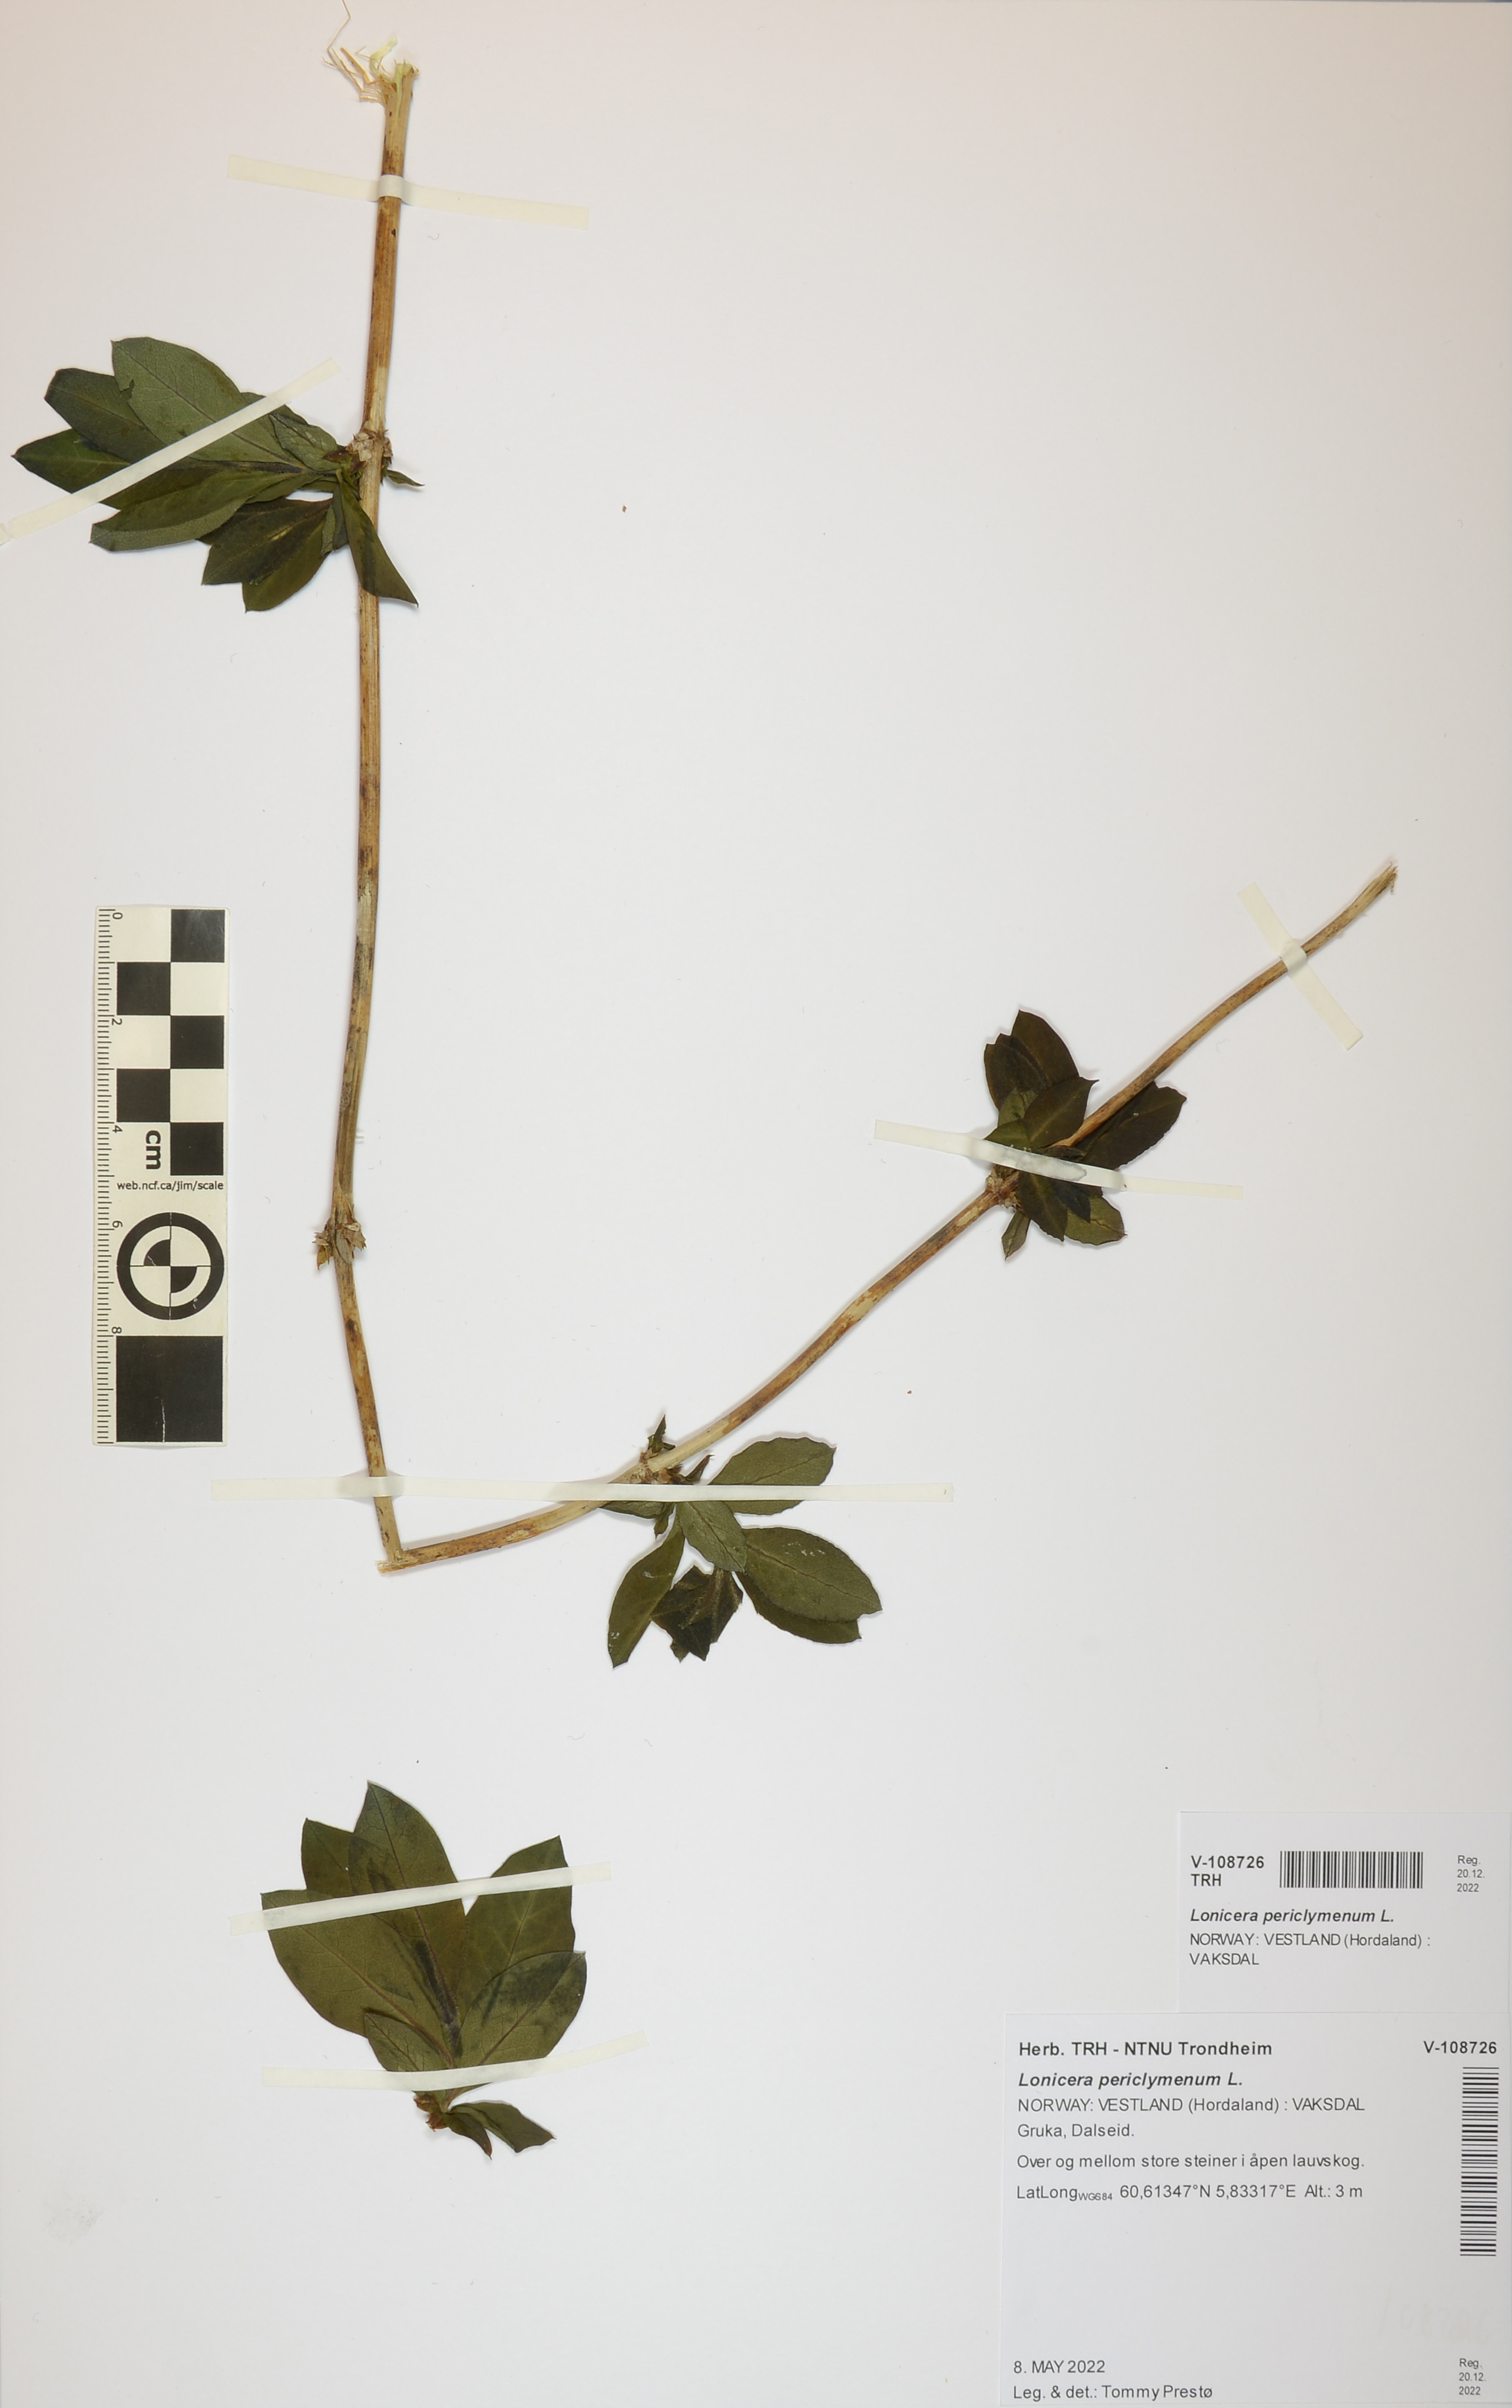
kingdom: Plantae
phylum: Tracheophyta
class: Magnoliopsida
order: Dipsacales
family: Caprifoliaceae
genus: Lonicera
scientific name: Lonicera periclymenum
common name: European honeysuckle
